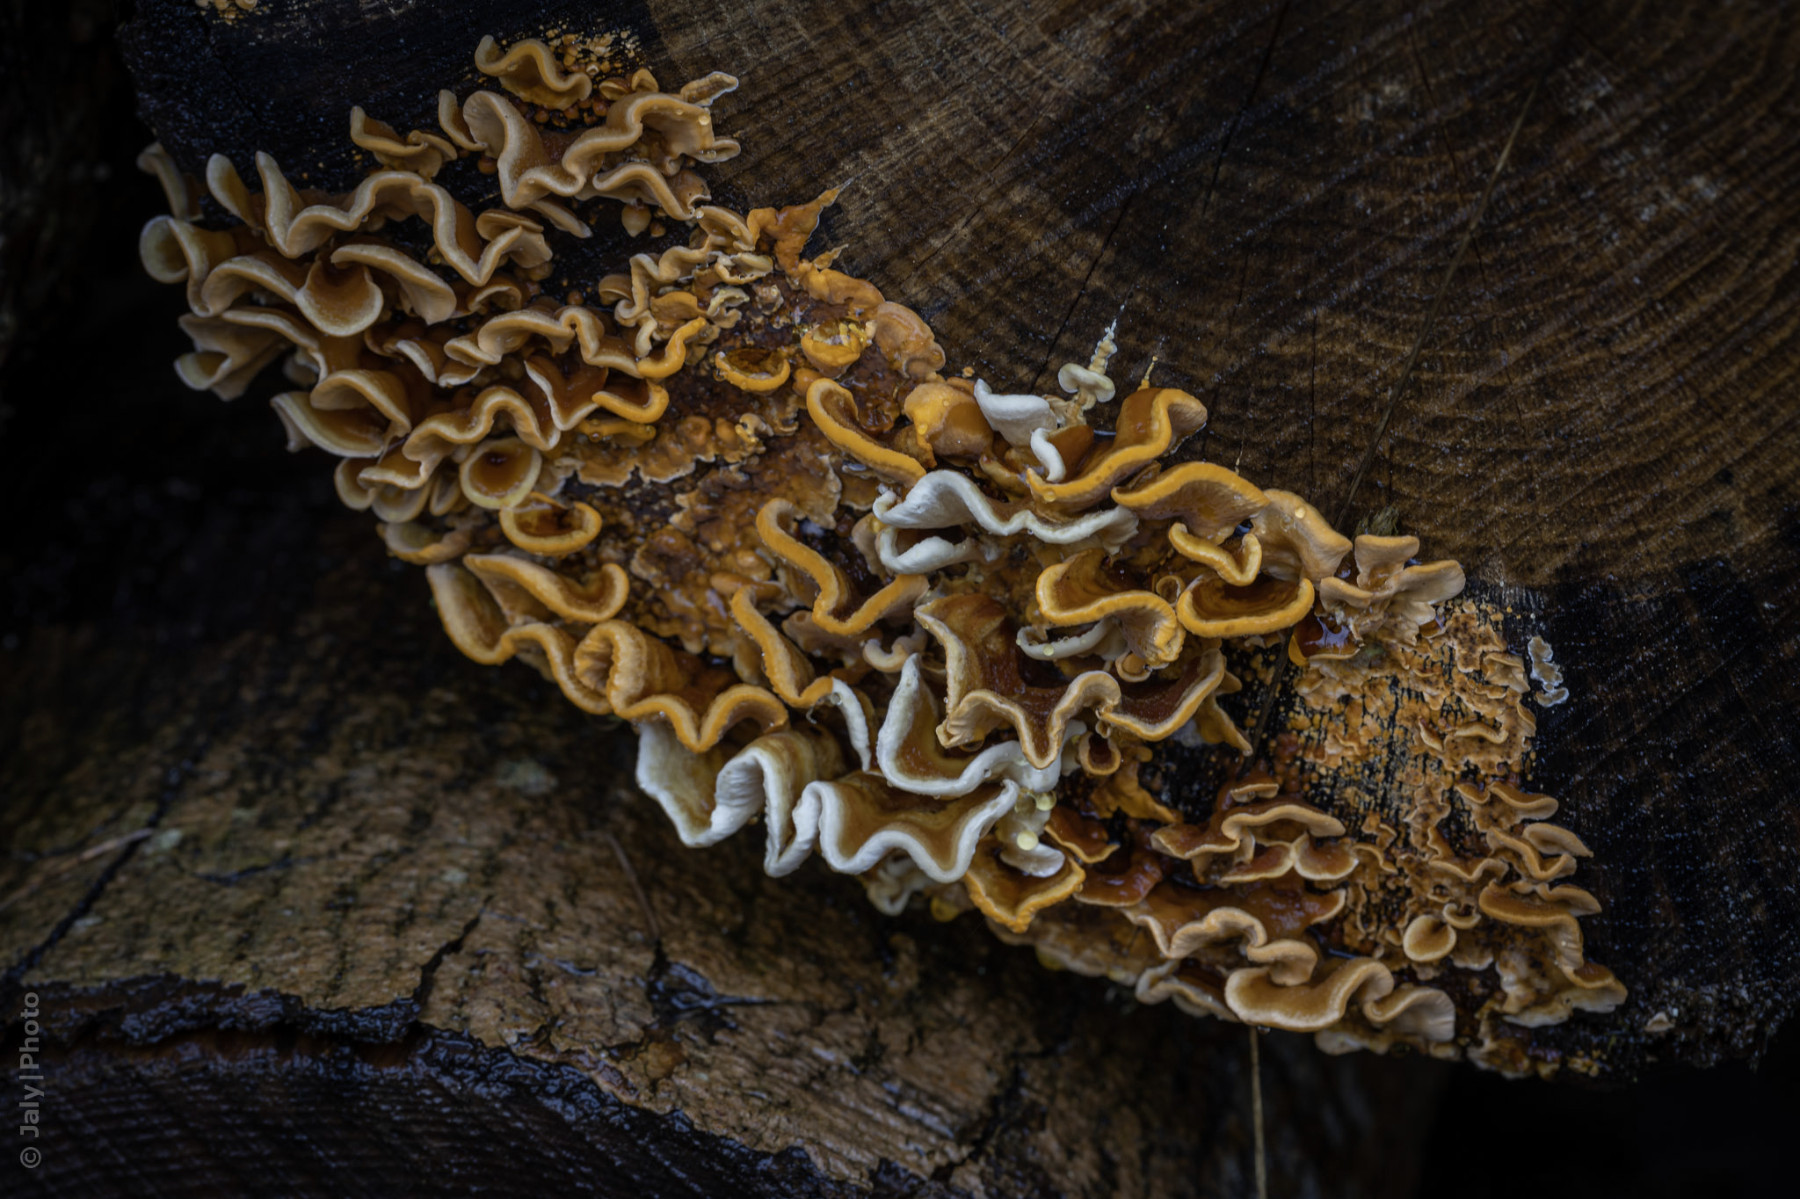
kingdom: Fungi
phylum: Basidiomycota
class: Agaricomycetes
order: Russulales
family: Stereaceae
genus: Stereum
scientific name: Stereum hirsutum
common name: håret lædersvamp
